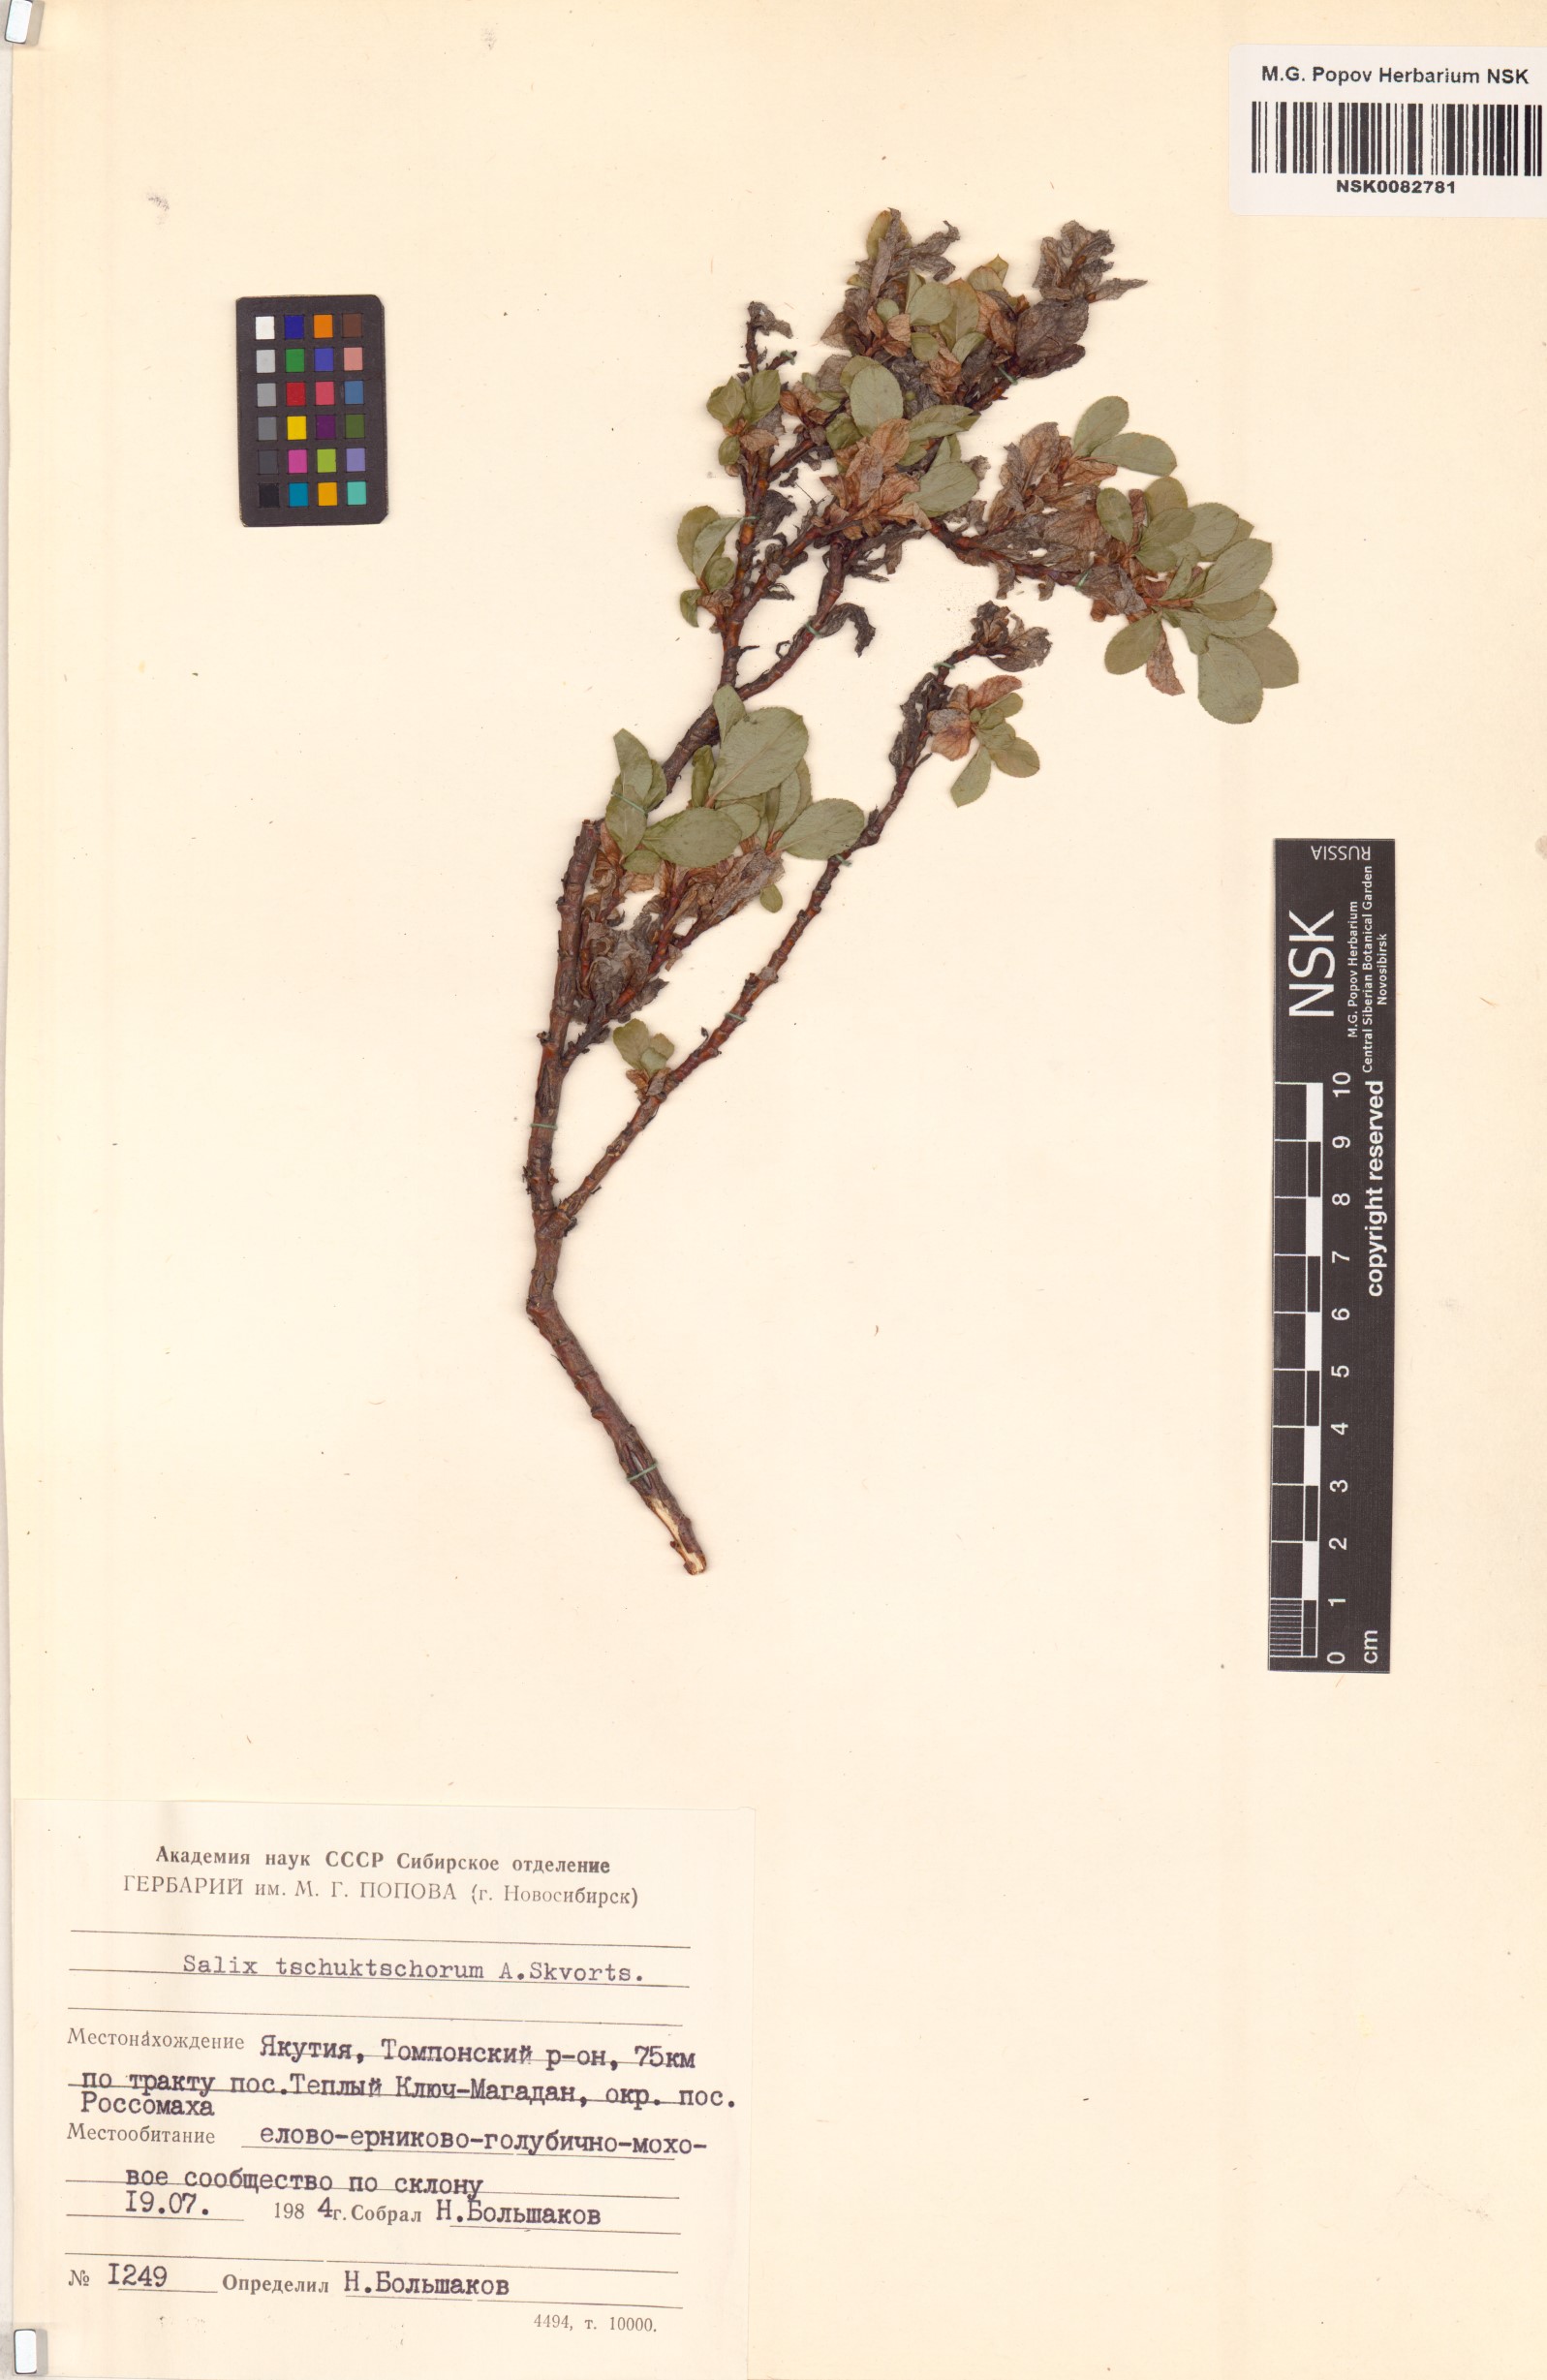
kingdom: Plantae
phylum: Tracheophyta
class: Magnoliopsida
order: Malpighiales
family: Salicaceae
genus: Salix
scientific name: Salix tschuktschorum
